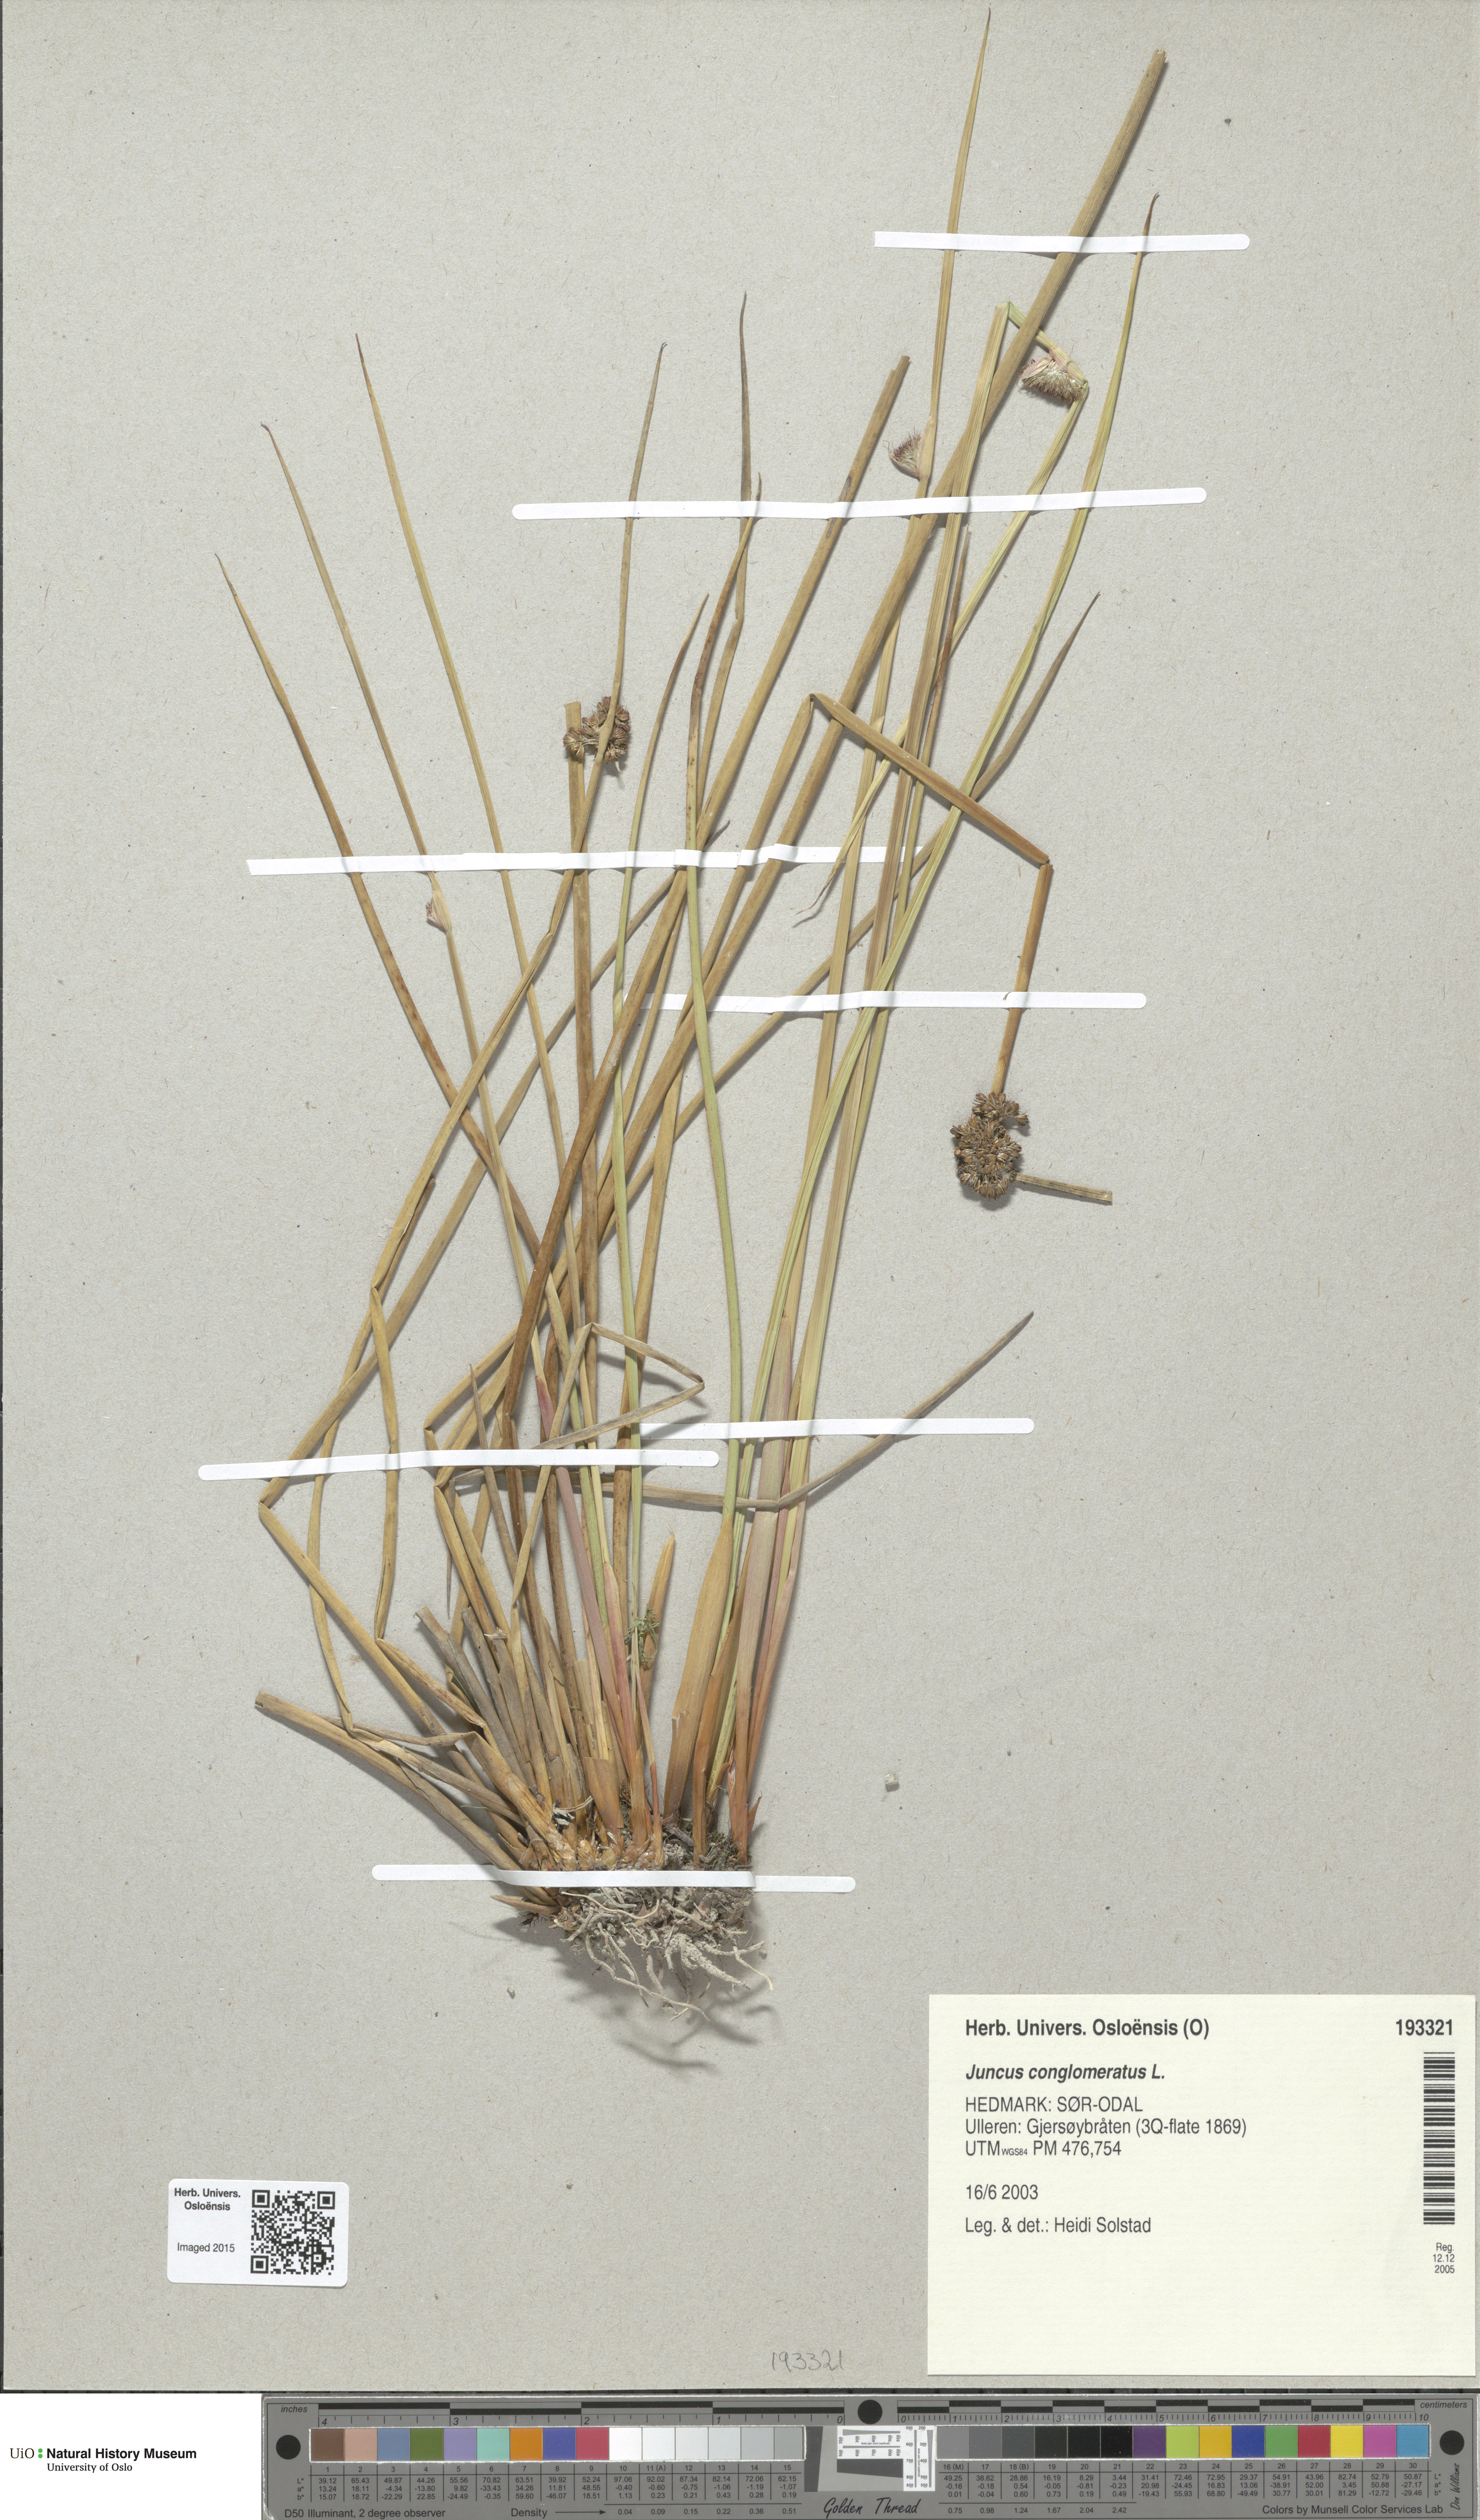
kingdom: Plantae
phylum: Tracheophyta
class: Liliopsida
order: Poales
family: Juncaceae
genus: Juncus
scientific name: Juncus conglomeratus
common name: Compact rush
